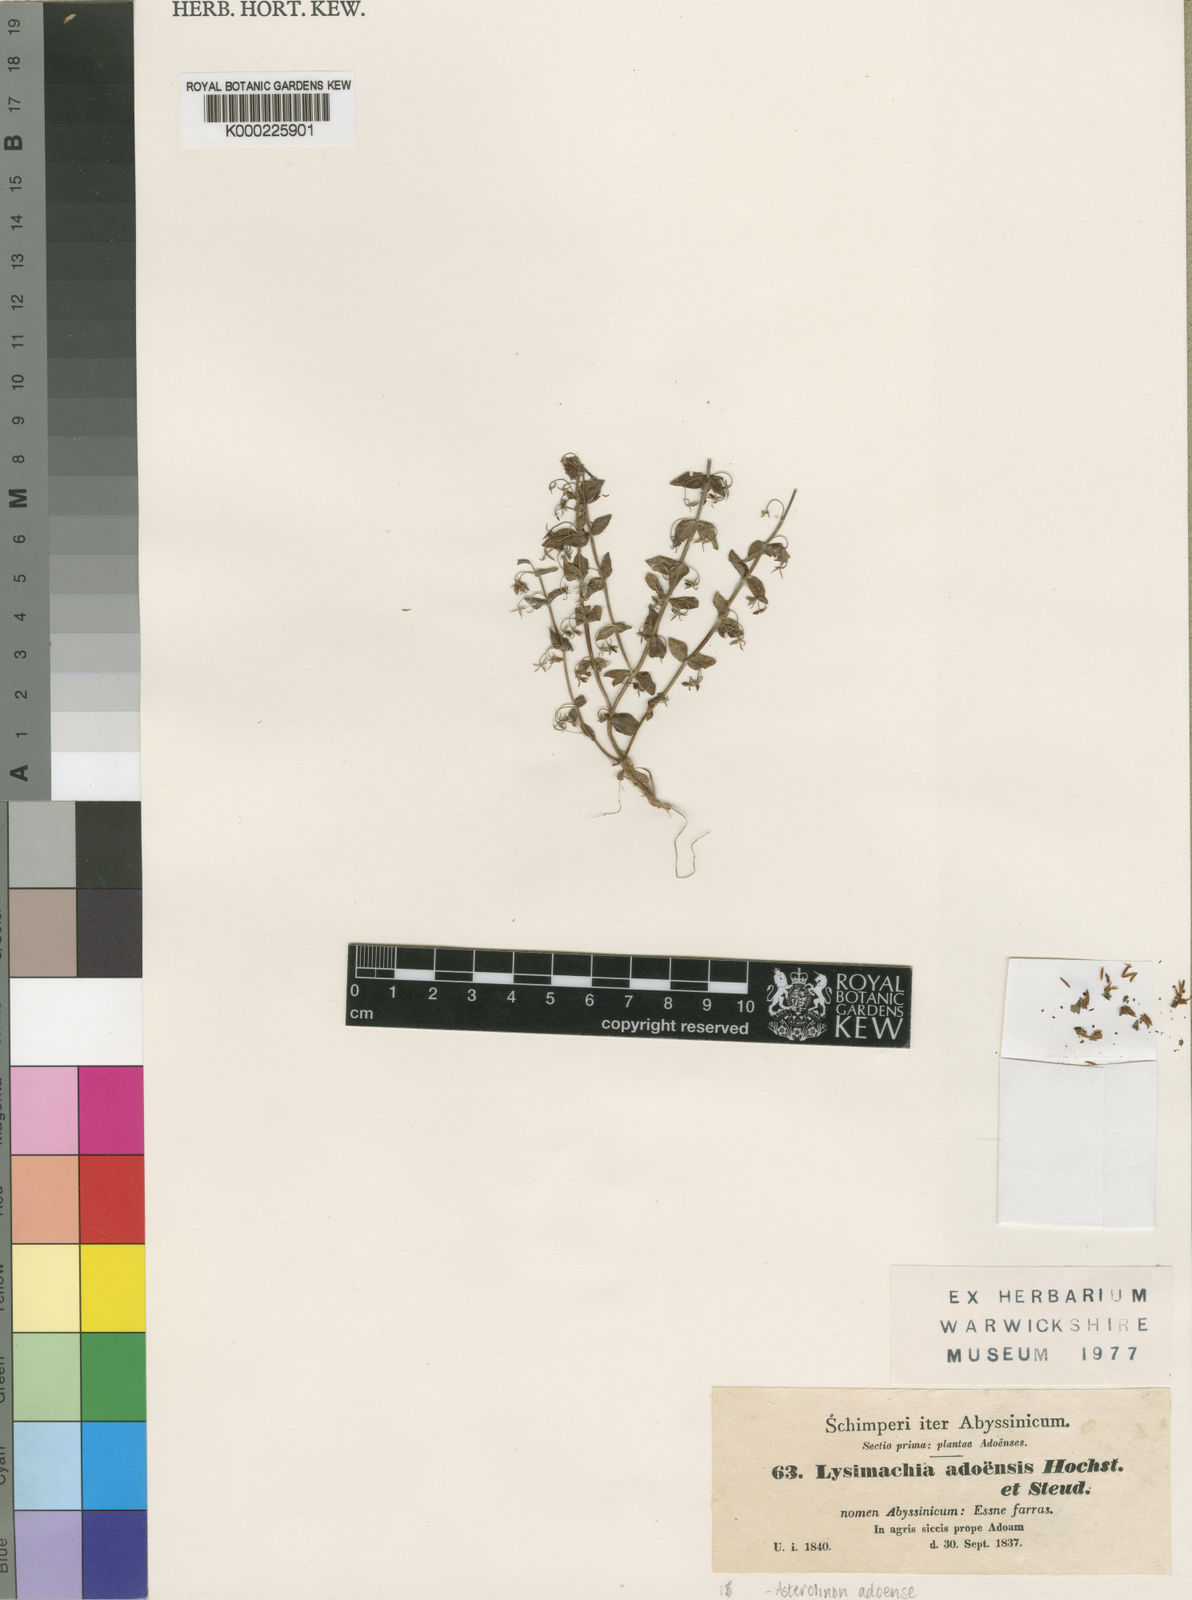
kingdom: Plantae
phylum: Tracheophyta
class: Magnoliopsida
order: Ericales
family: Primulaceae
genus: Lysimachia
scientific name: Lysimachia adoensis
